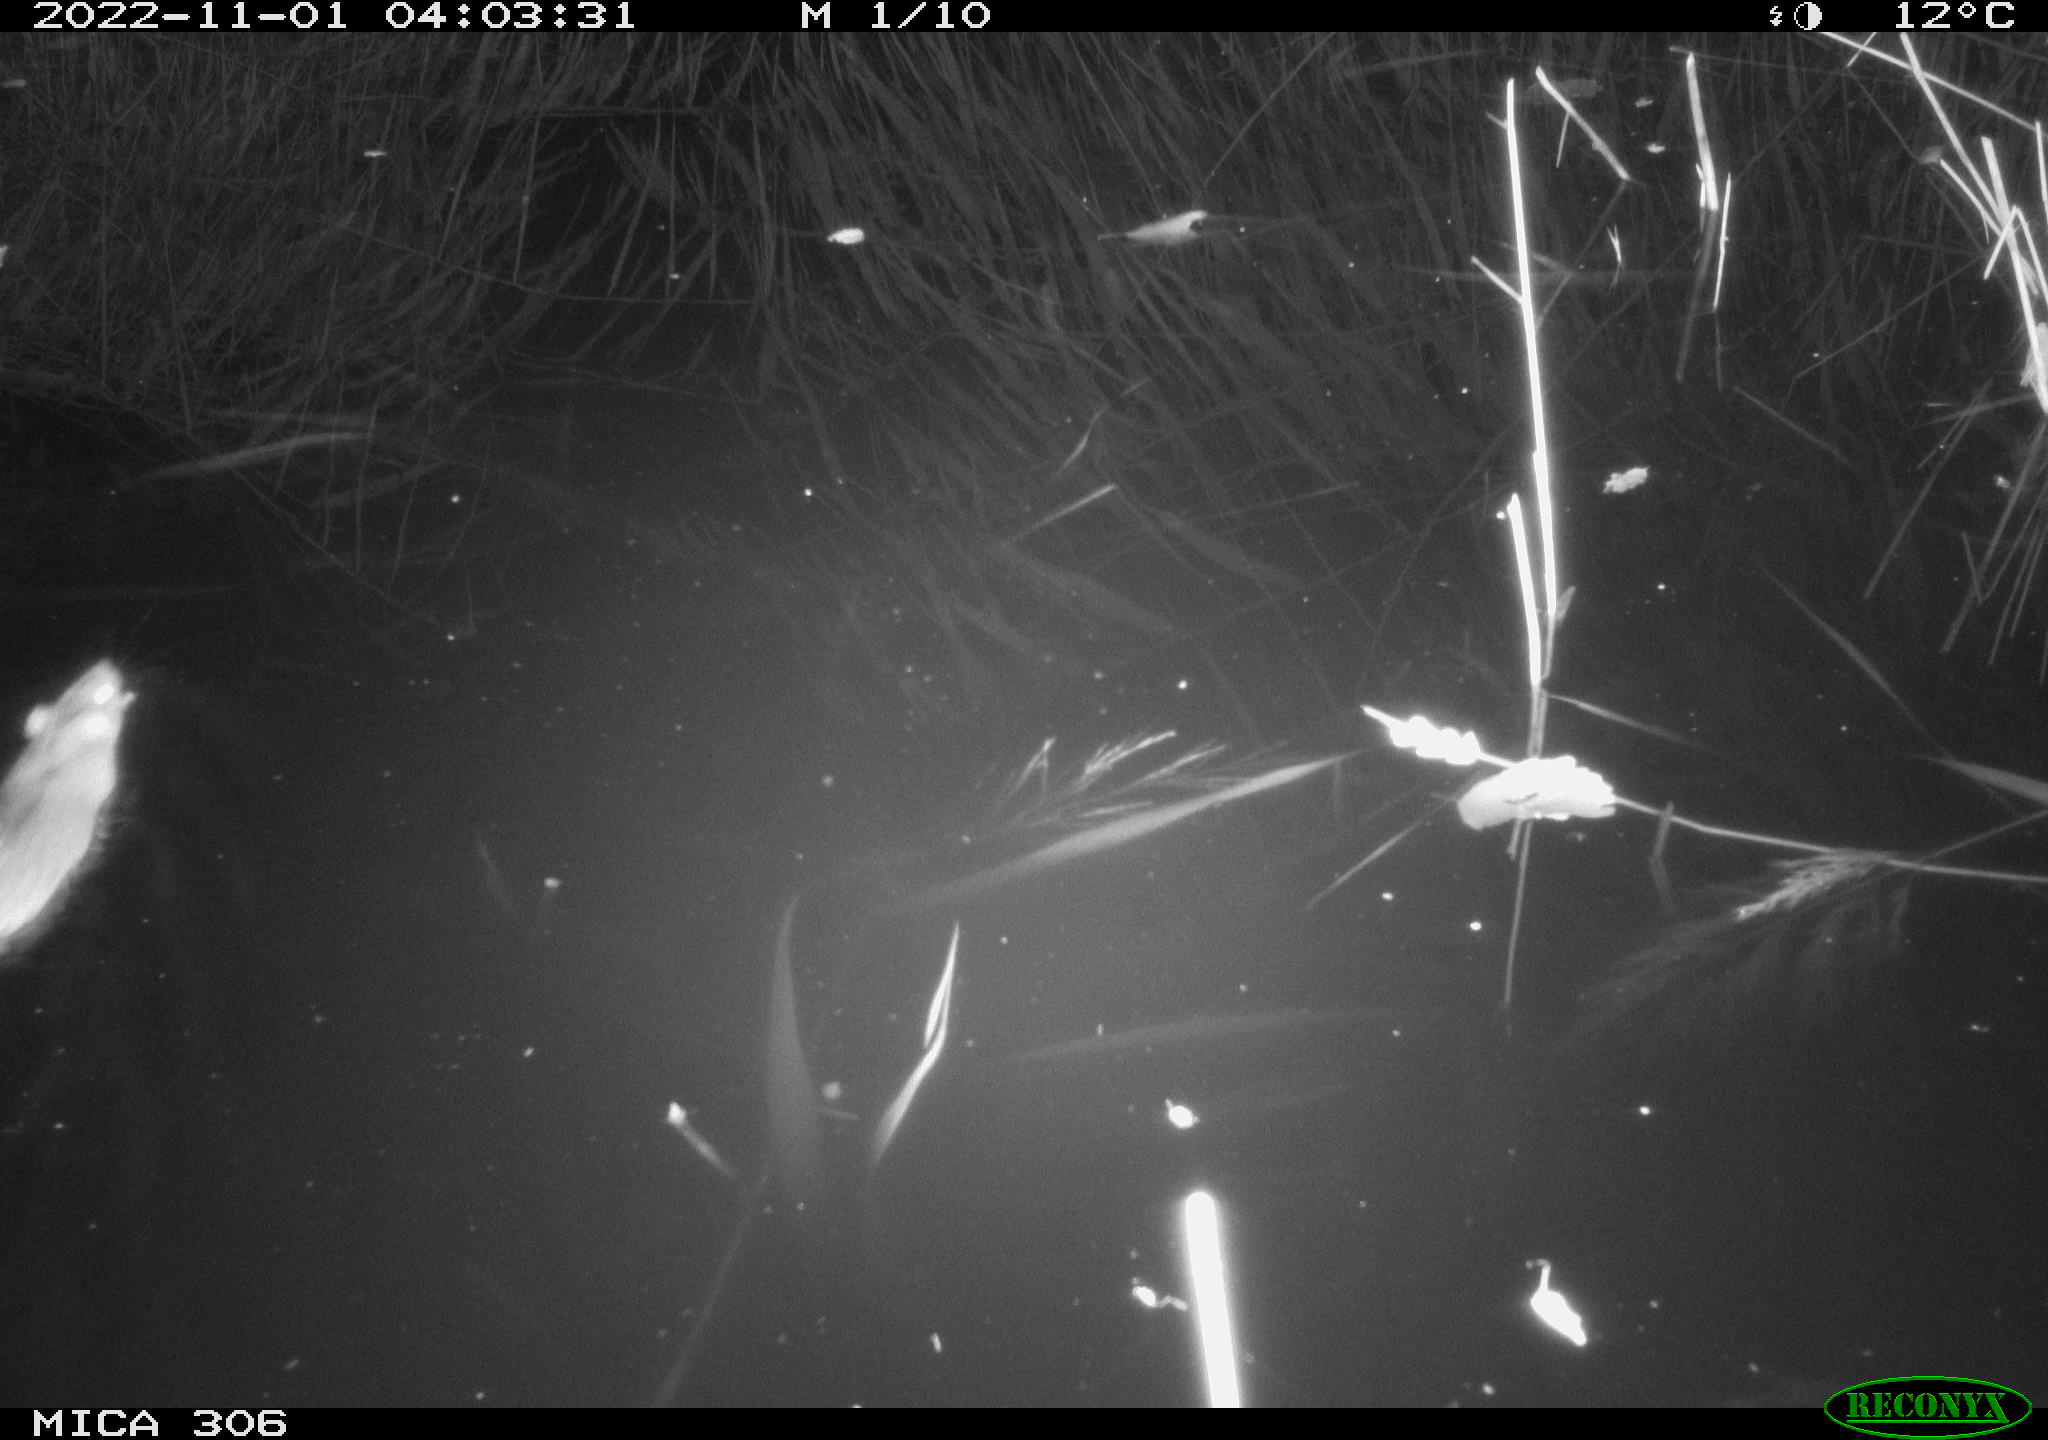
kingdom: Animalia
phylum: Chordata
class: Mammalia
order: Rodentia
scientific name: Rodentia
